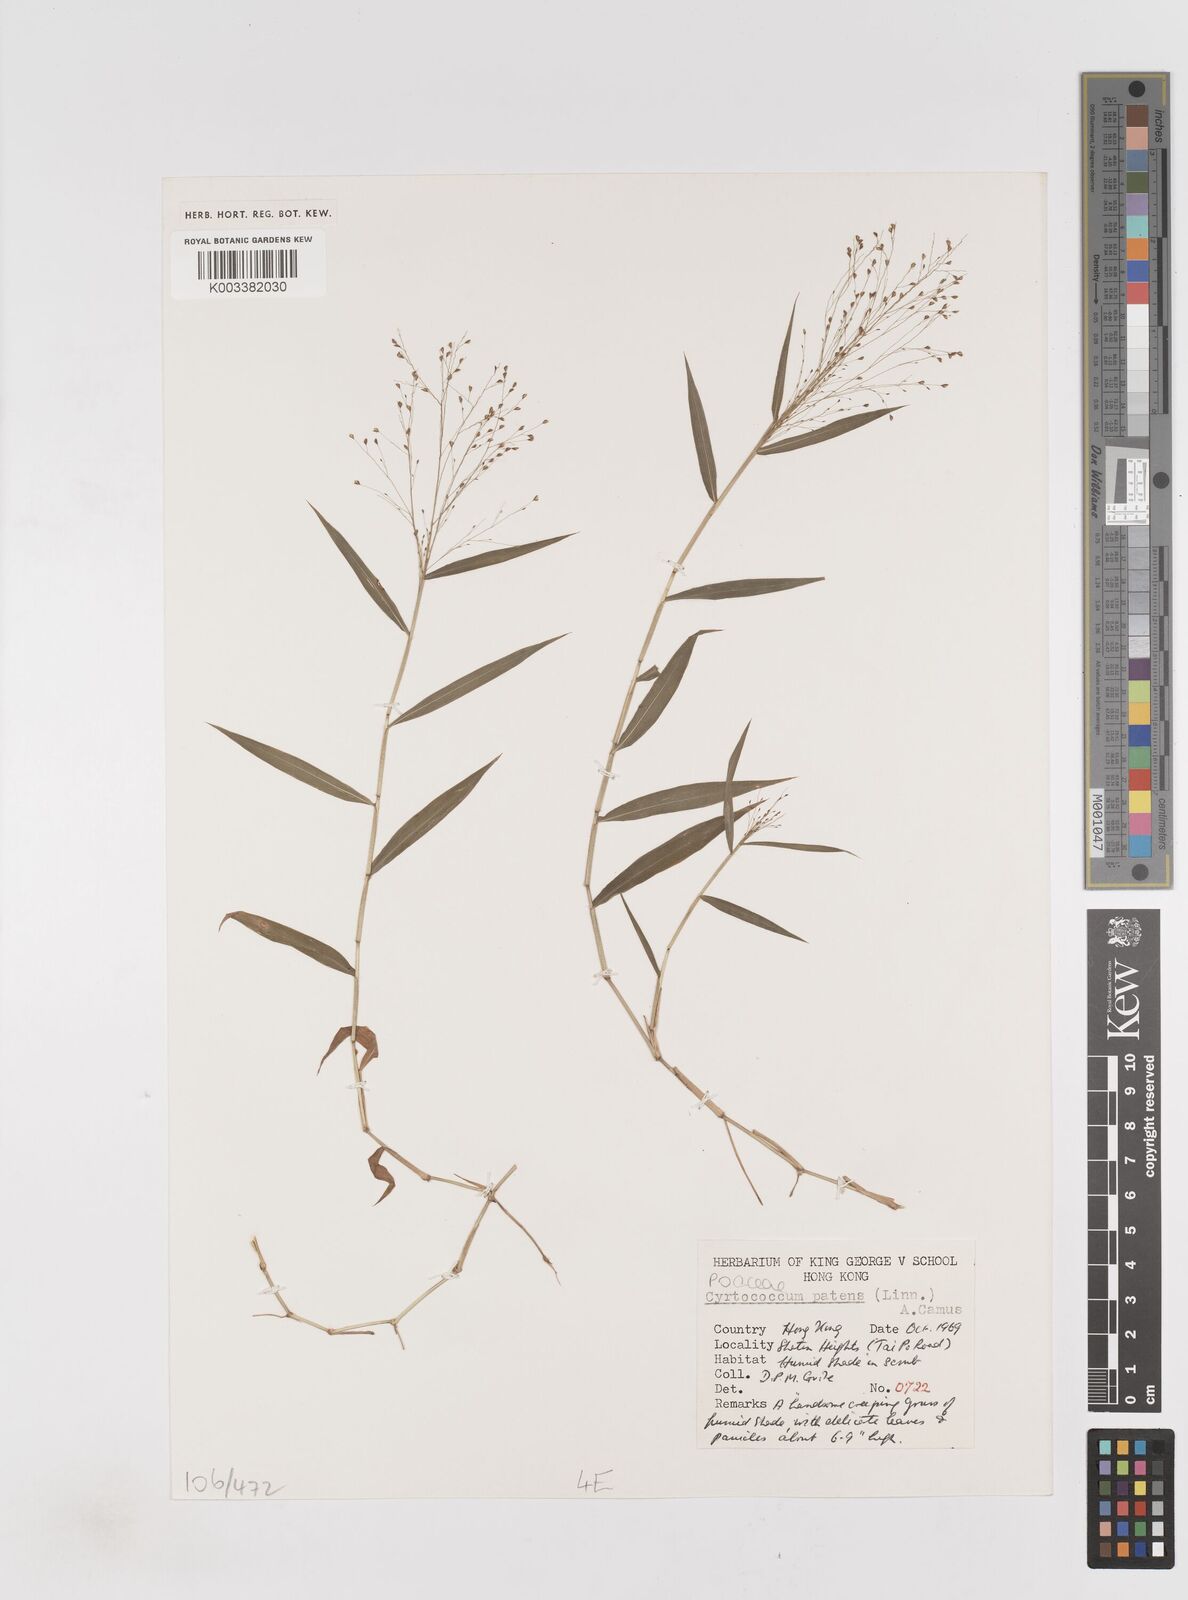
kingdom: Plantae
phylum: Tracheophyta
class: Liliopsida
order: Poales
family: Poaceae
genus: Cyrtococcum
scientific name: Cyrtococcum accrescens
